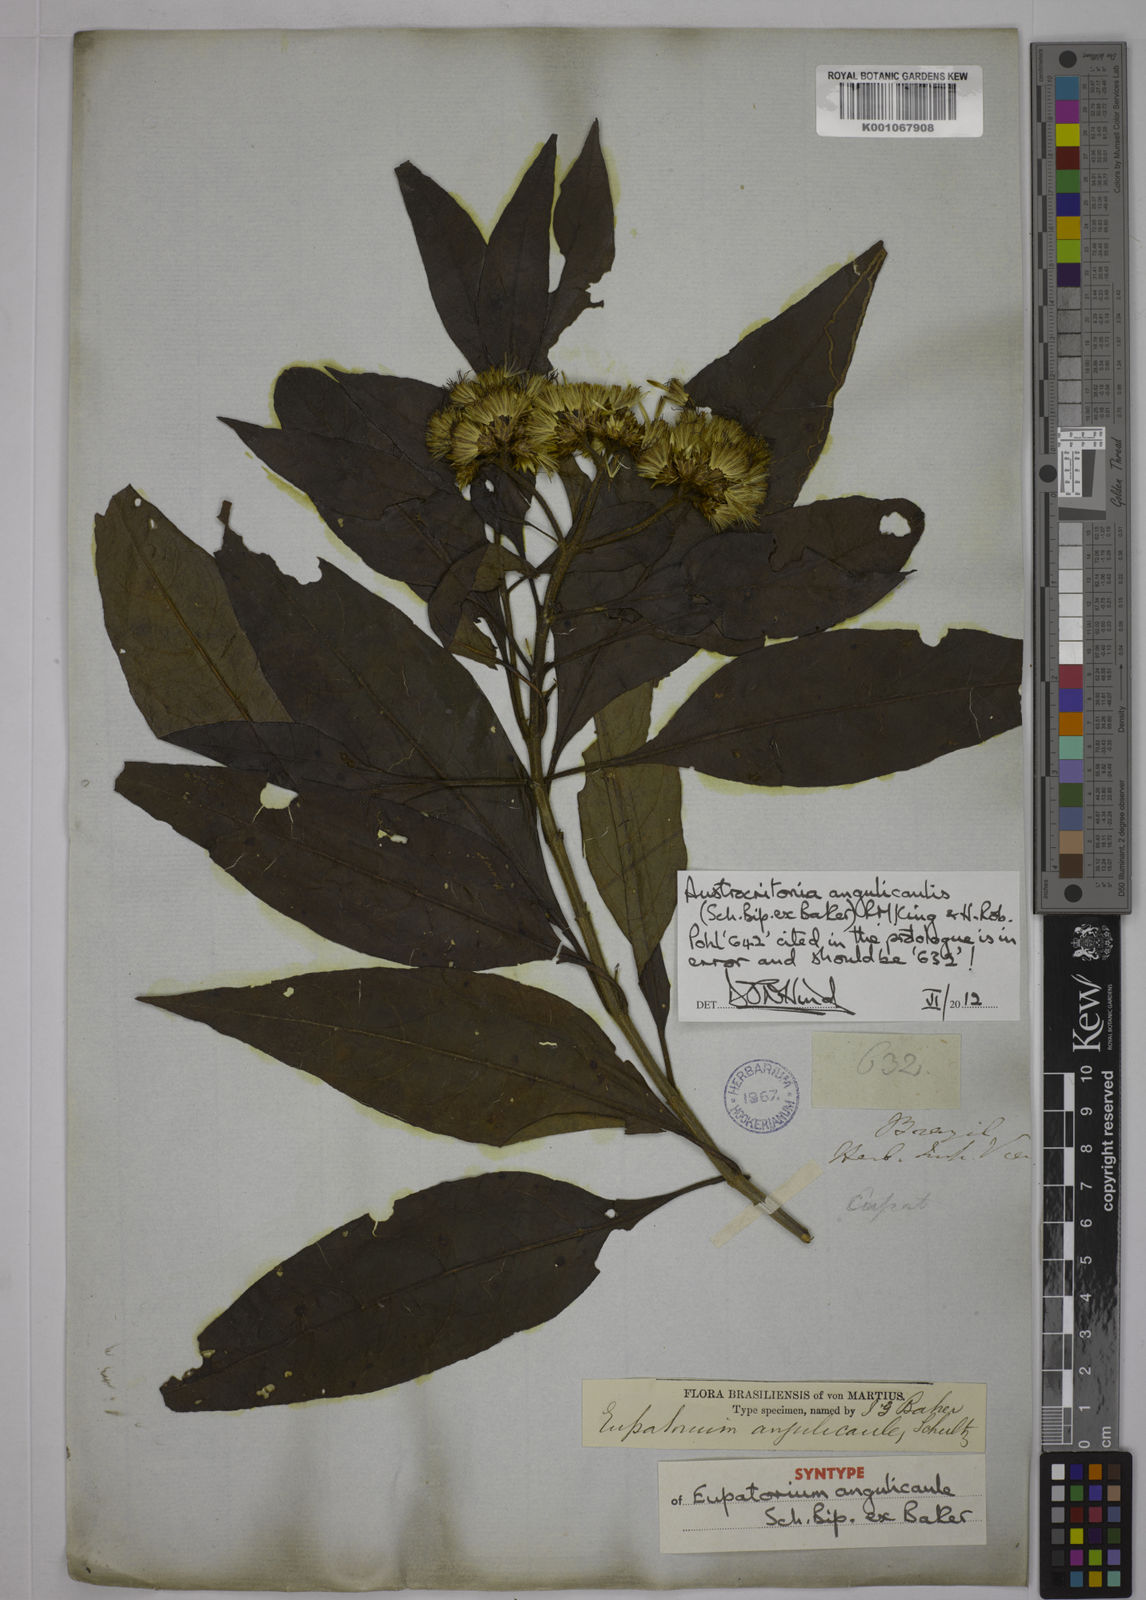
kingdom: Plantae
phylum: Tracheophyta
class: Magnoliopsida
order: Asterales
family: Asteraceae
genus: Austrocritonia
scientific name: Austrocritonia angulicaulis
